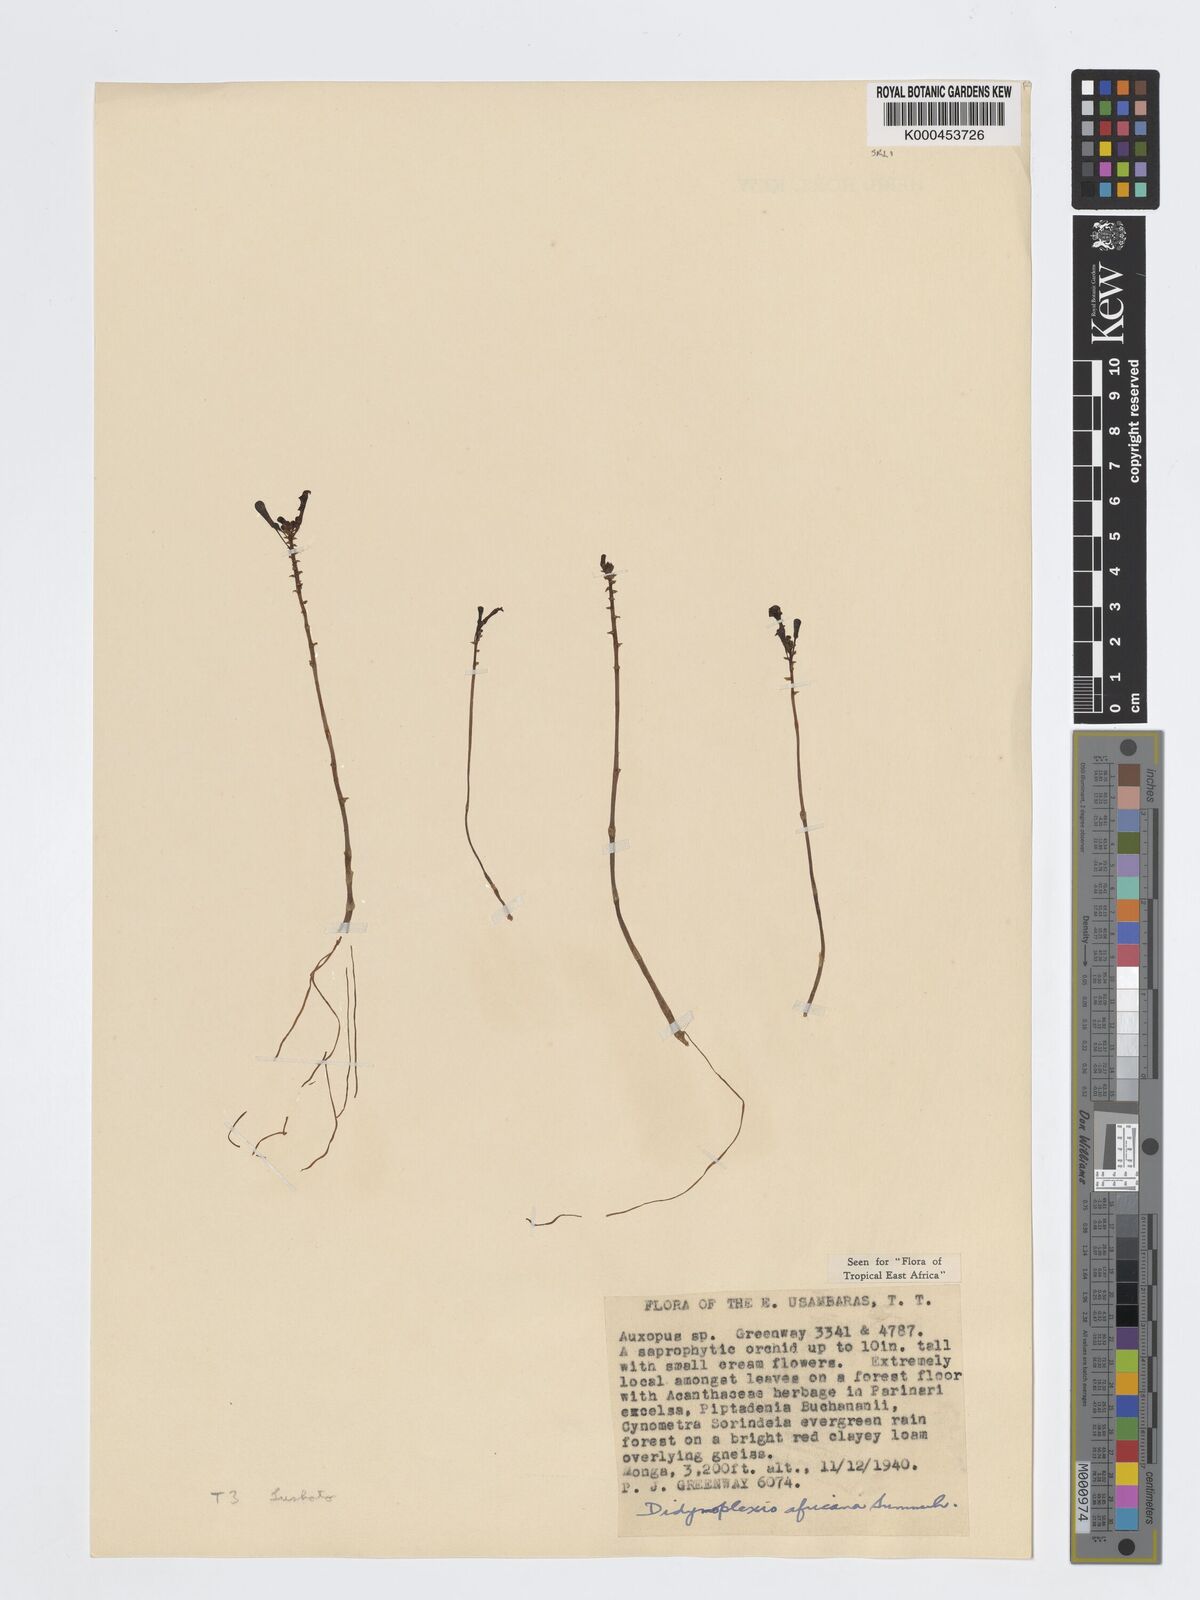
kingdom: Plantae
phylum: Tracheophyta
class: Liliopsida
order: Asparagales
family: Orchidaceae
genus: Didymoplexis
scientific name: Didymoplexis africana
